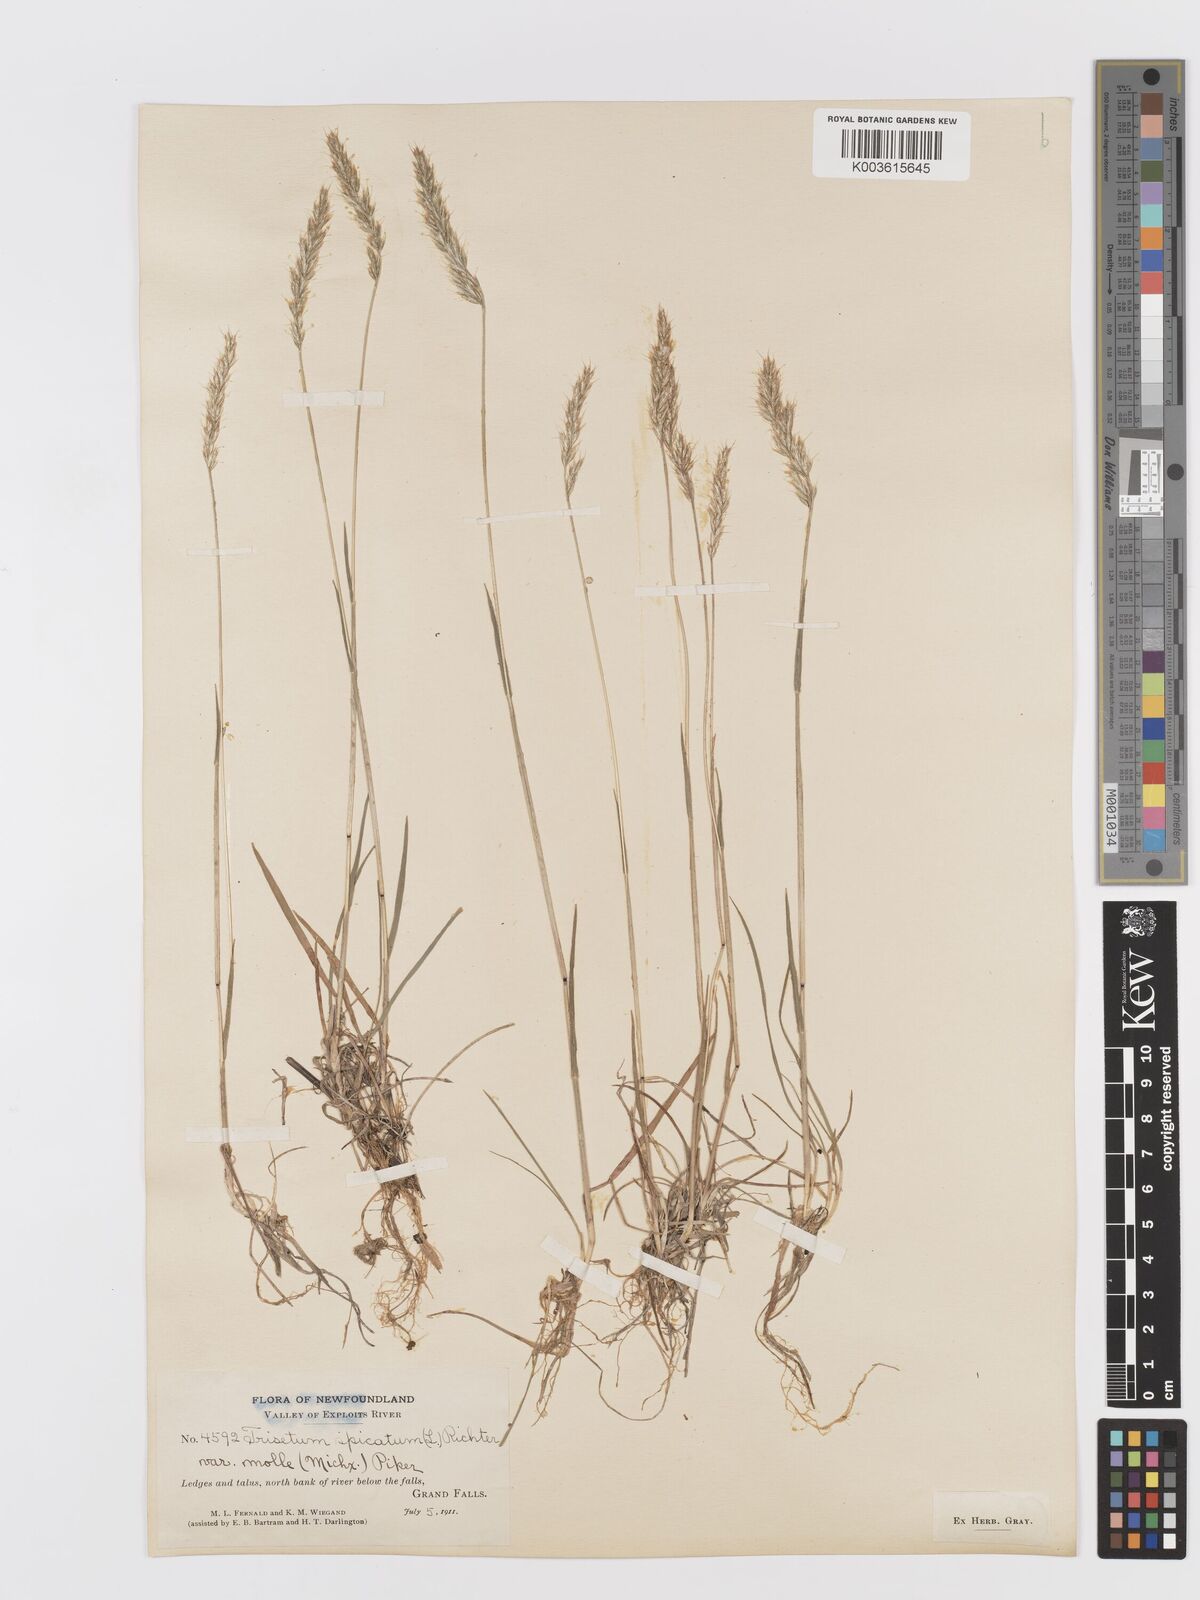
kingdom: Plantae
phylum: Tracheophyta
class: Liliopsida
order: Poales
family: Poaceae
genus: Koeleria
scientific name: Koeleria spicata
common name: Mountain trisetum
